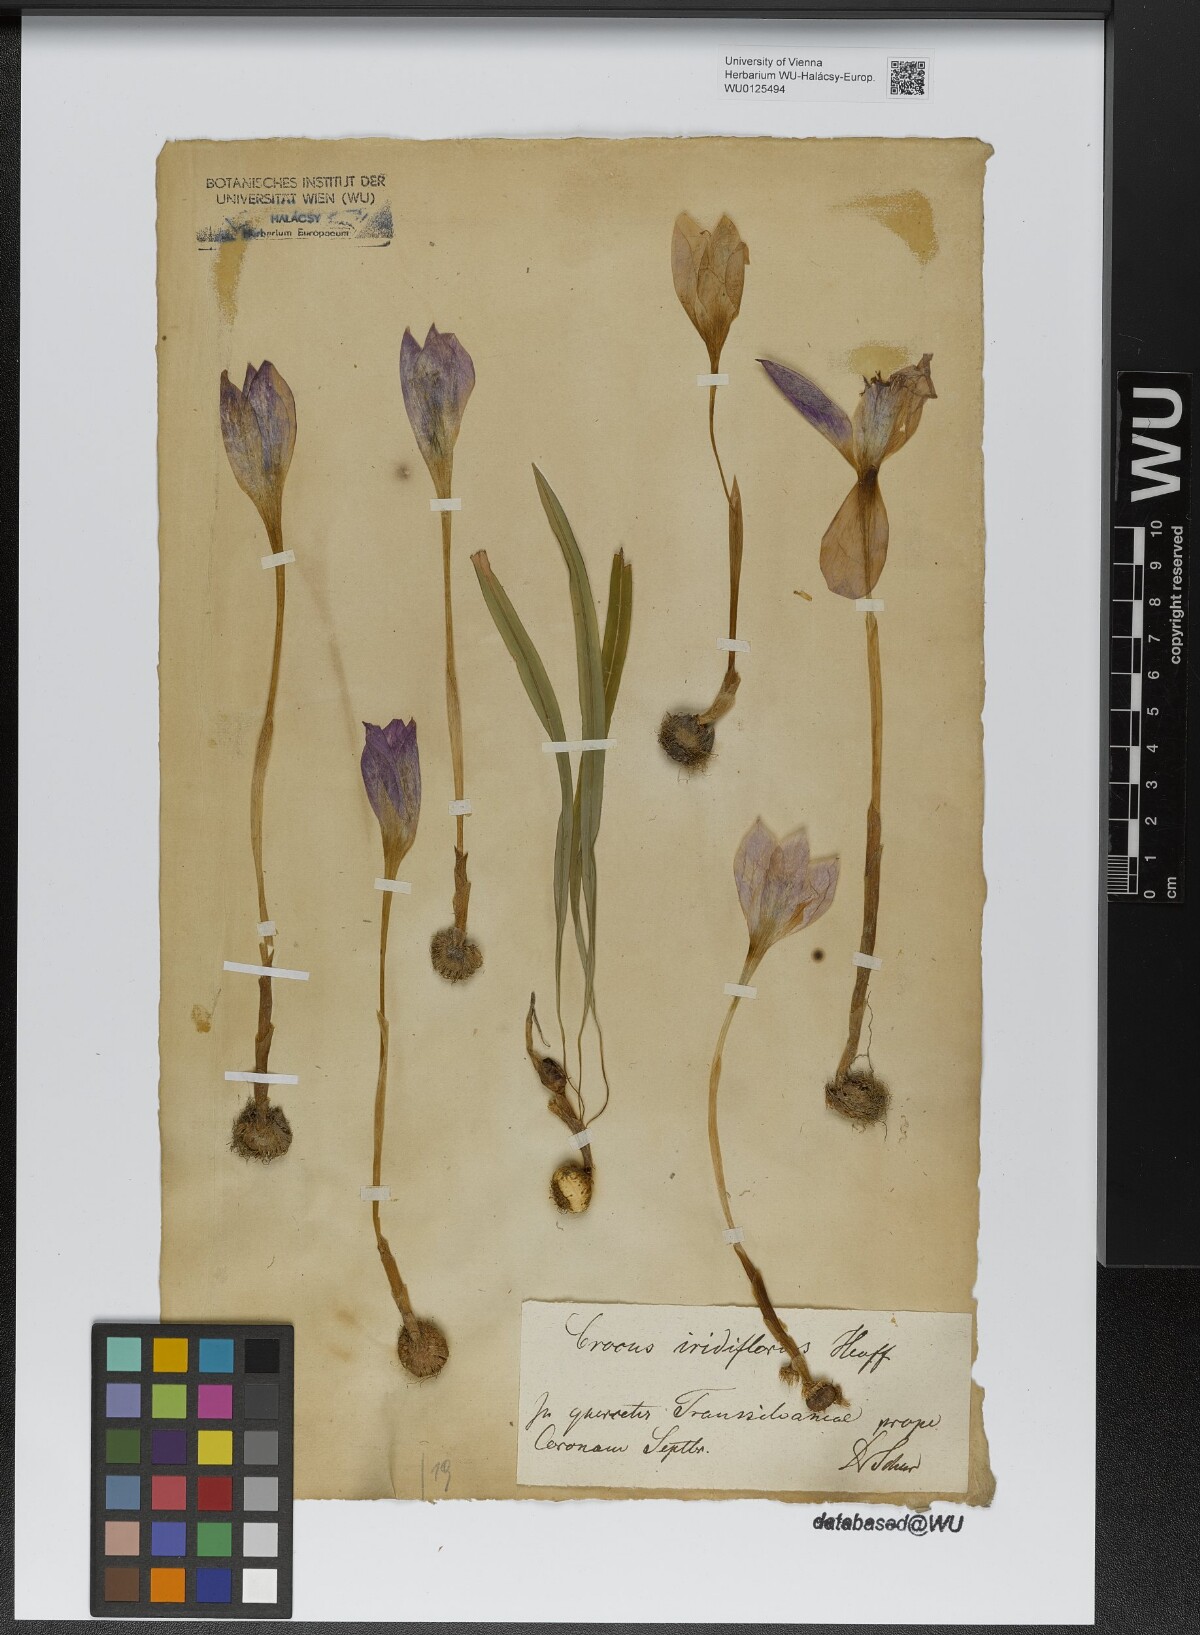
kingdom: Plantae
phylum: Tracheophyta
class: Liliopsida
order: Asparagales
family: Iridaceae
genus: Crocus
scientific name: Crocus banaticus
